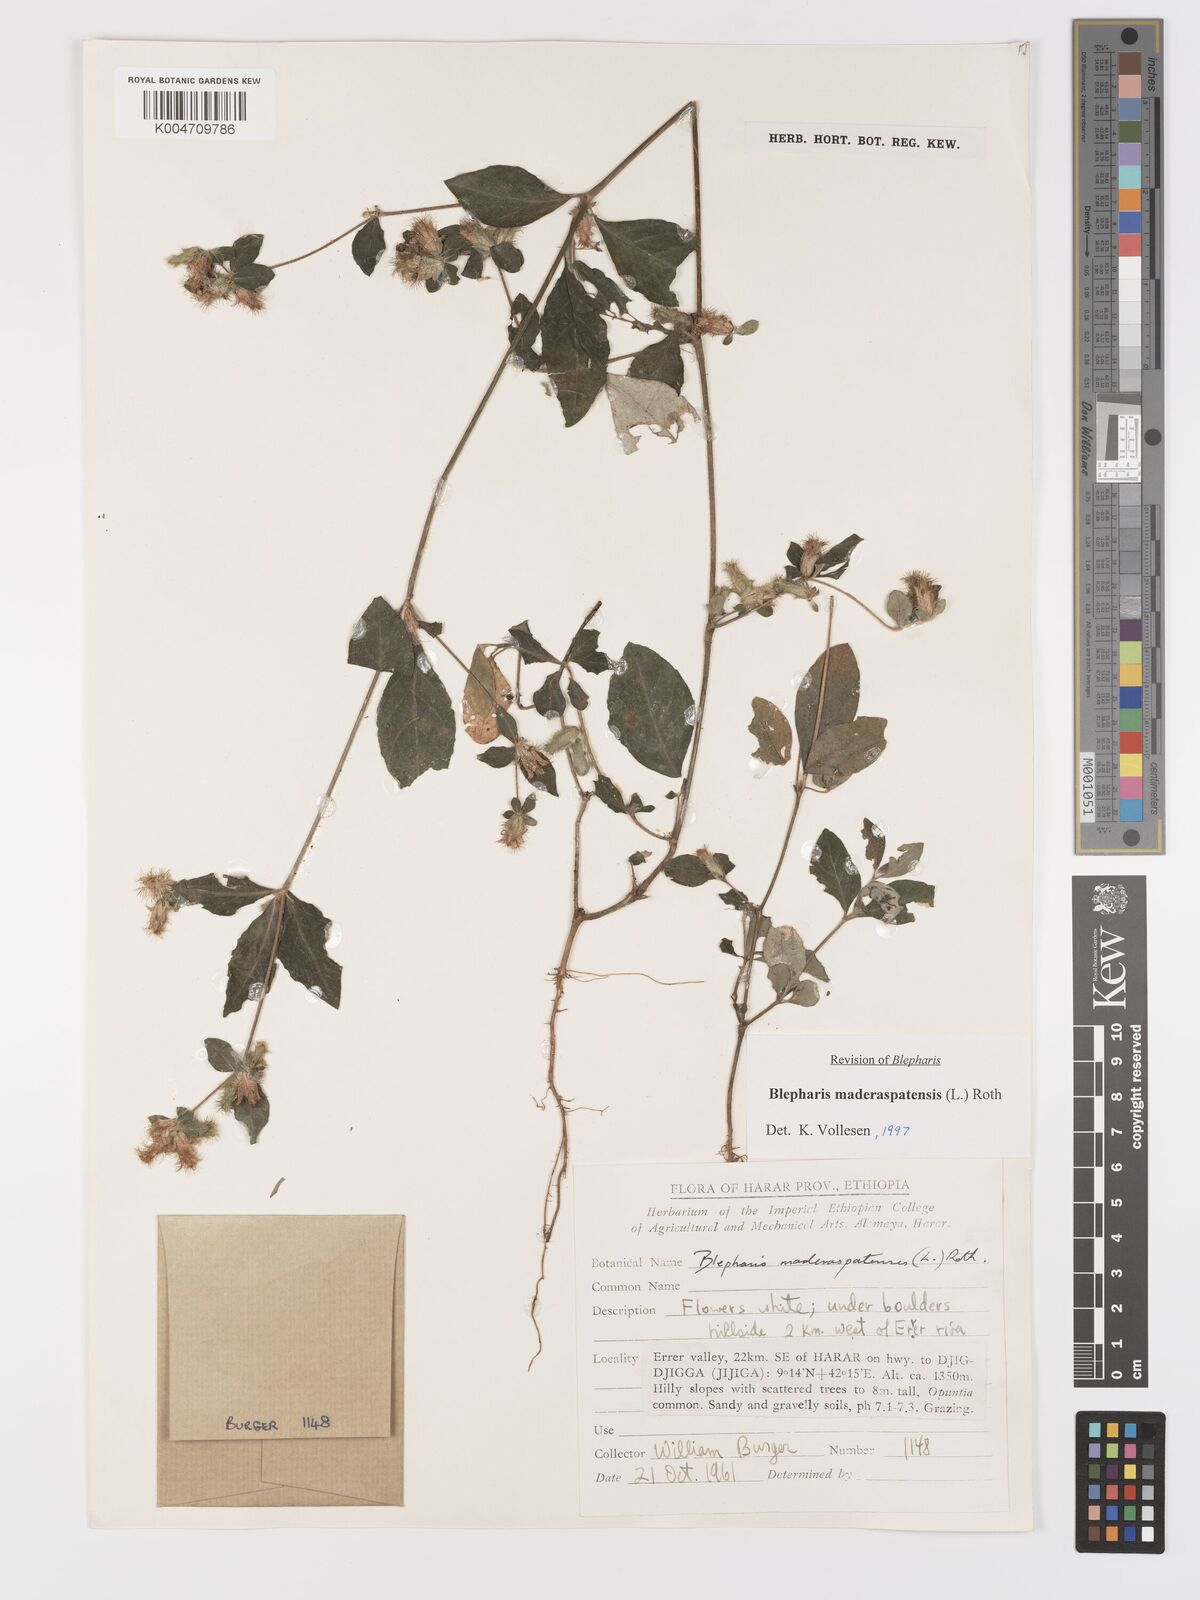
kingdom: Plantae
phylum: Tracheophyta
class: Magnoliopsida
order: Lamiales
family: Acanthaceae
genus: Blepharis
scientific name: Blepharis maderaspatensis
